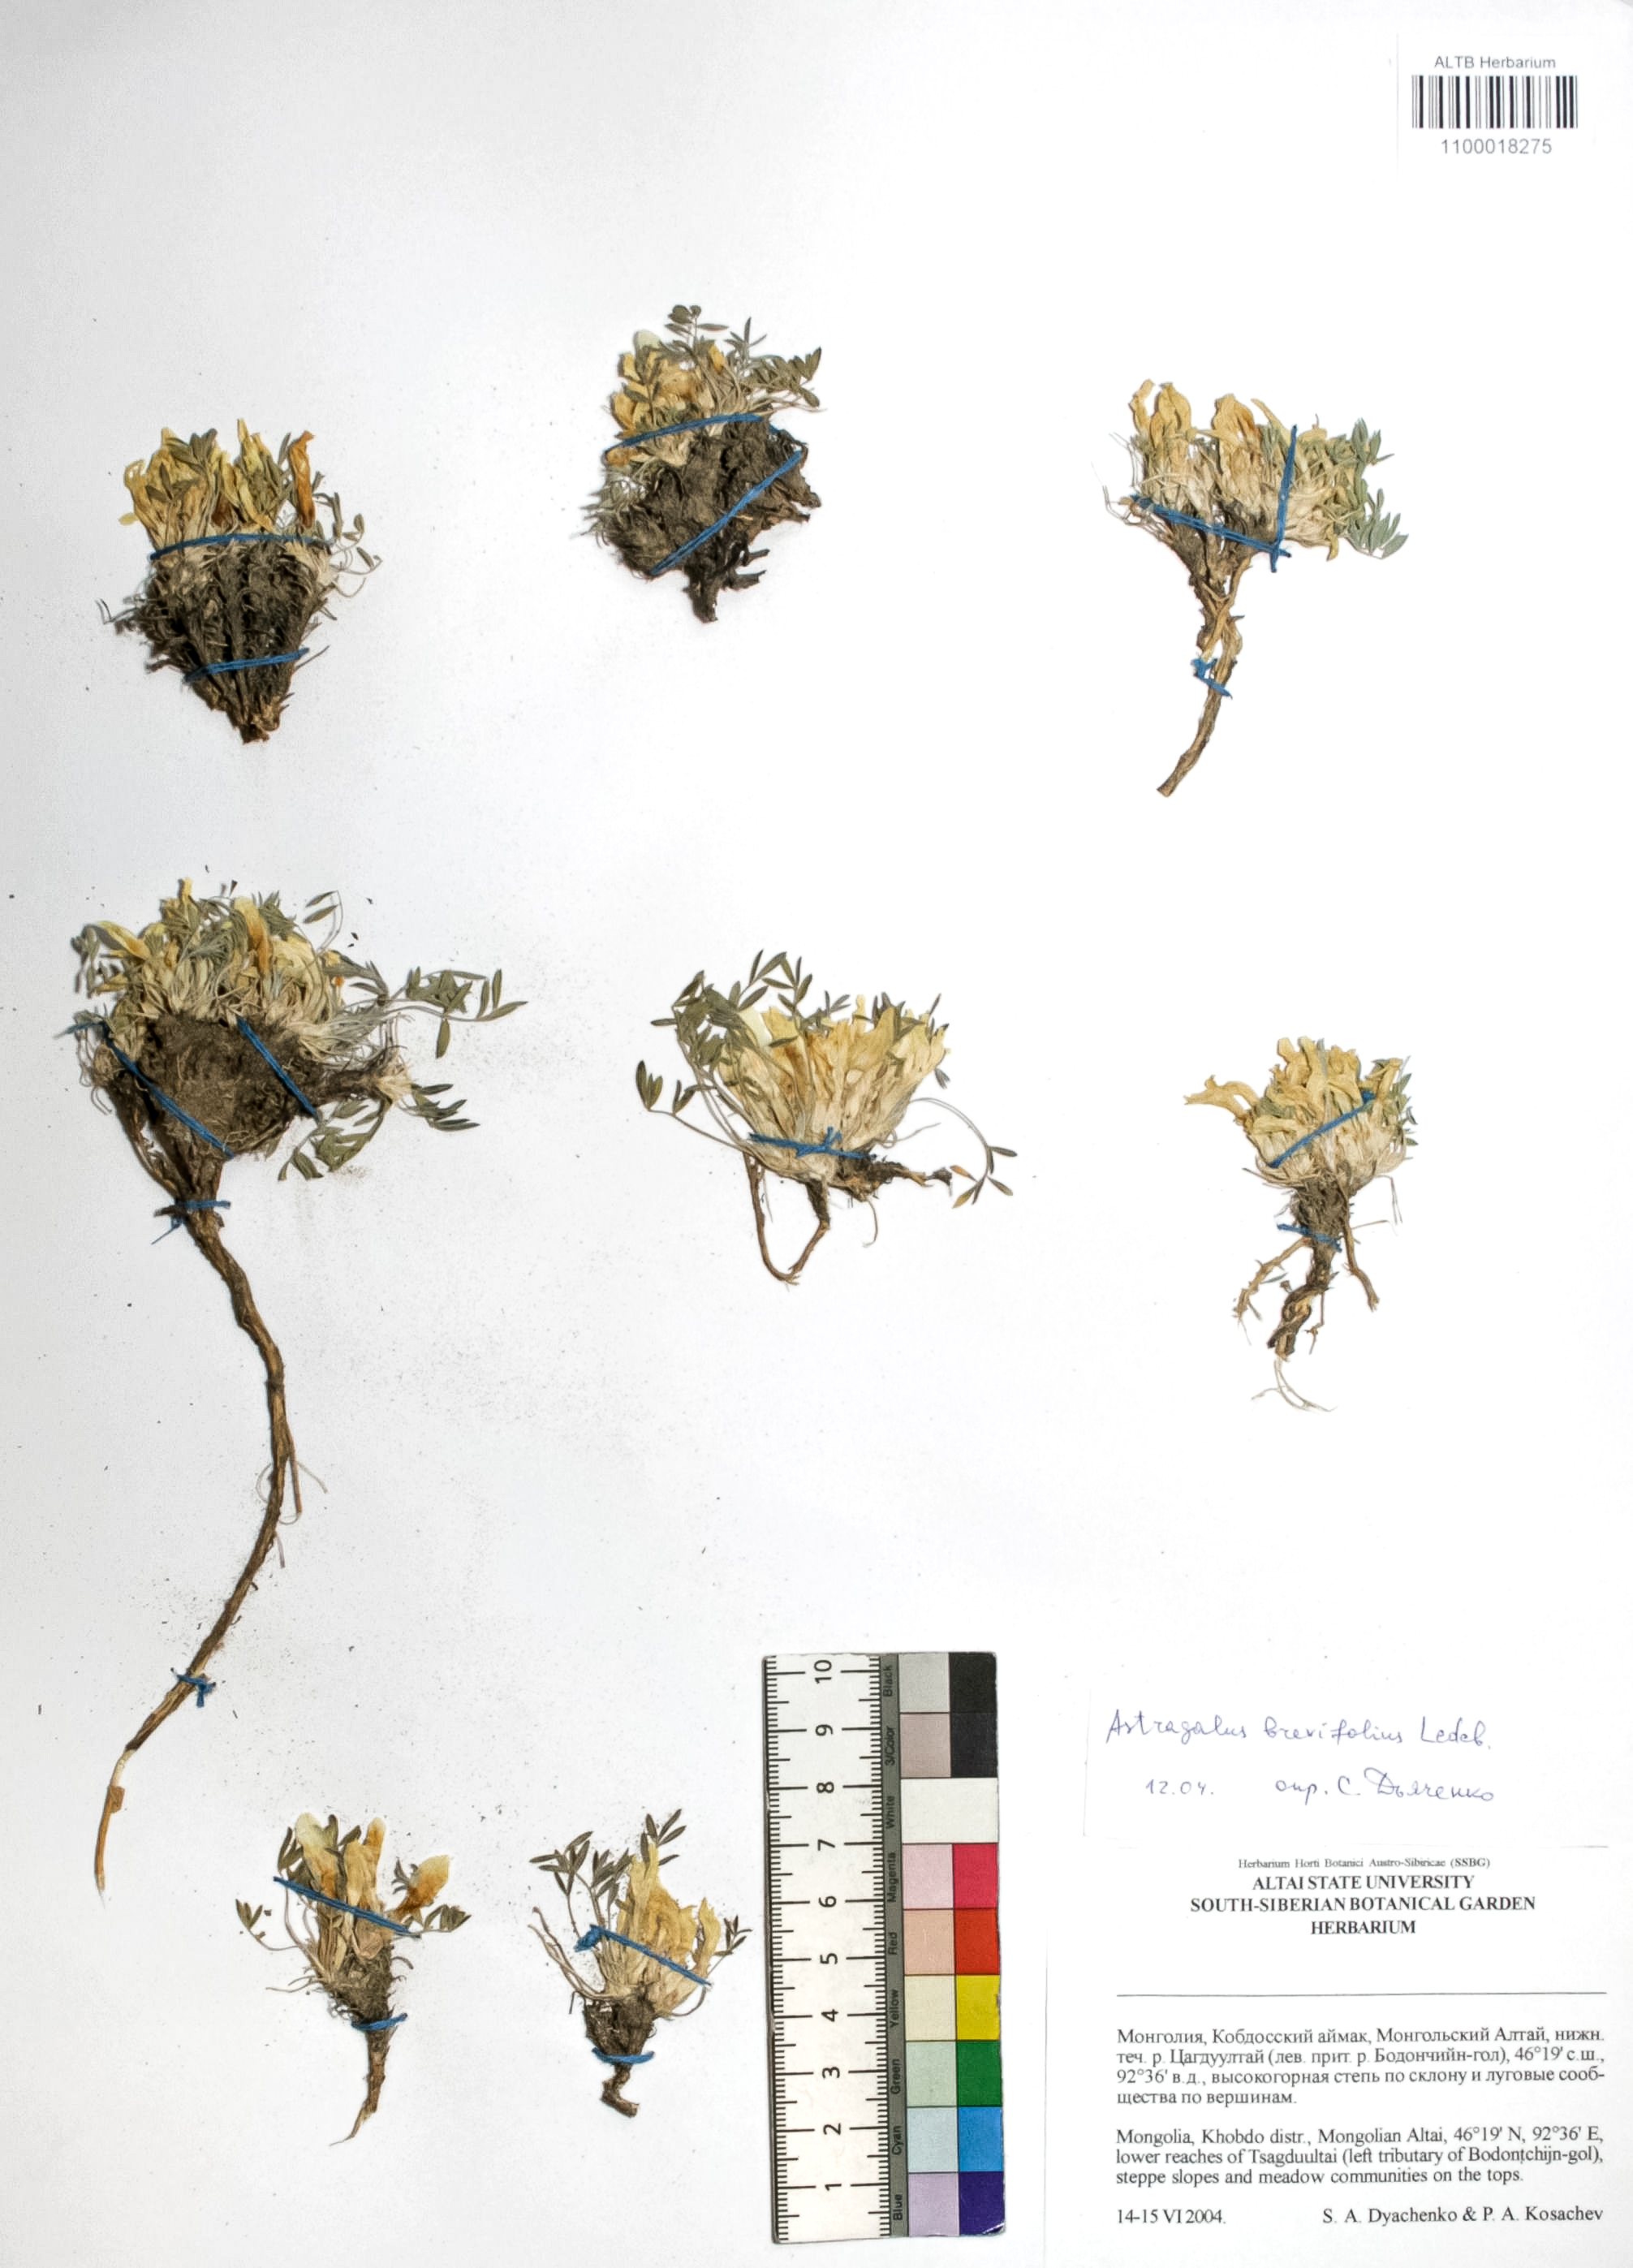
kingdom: Plantae
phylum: Tracheophyta
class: Magnoliopsida
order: Fabales
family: Fabaceae
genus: Astragalus
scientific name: Astragalus brevifolius
